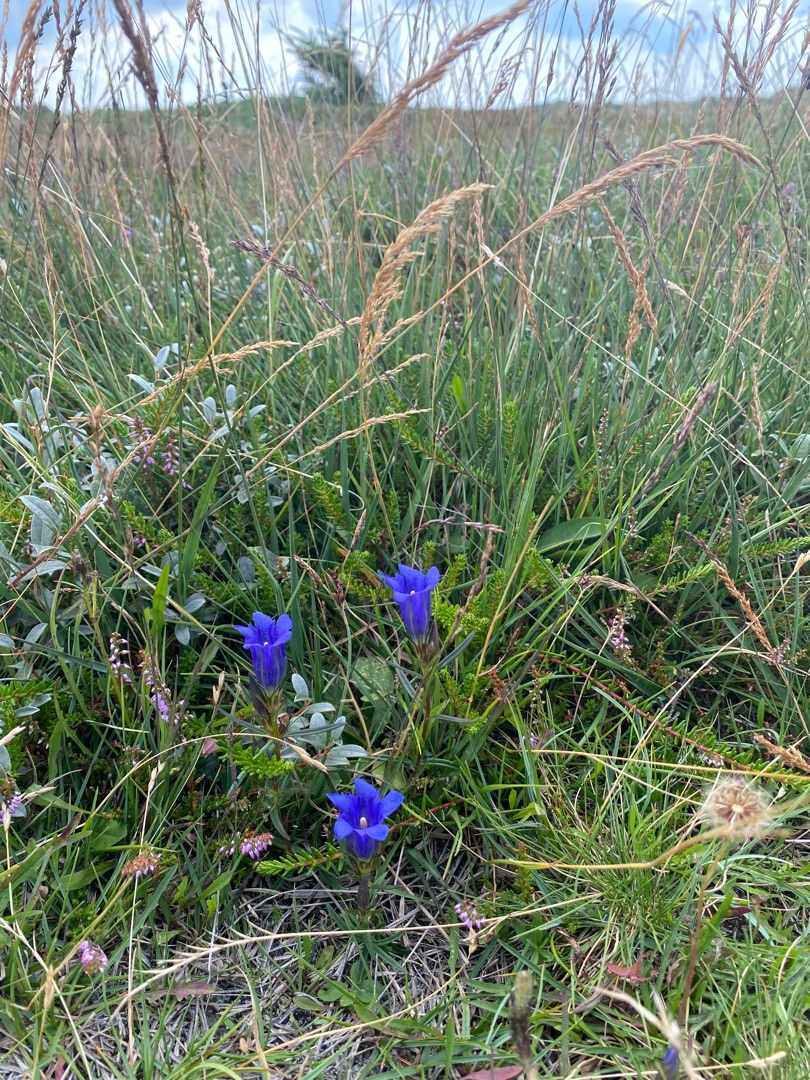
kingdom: Plantae
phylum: Tracheophyta
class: Magnoliopsida
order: Gentianales
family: Gentianaceae
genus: Gentiana
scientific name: Gentiana pneumonanthe
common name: Klokke-ensian
